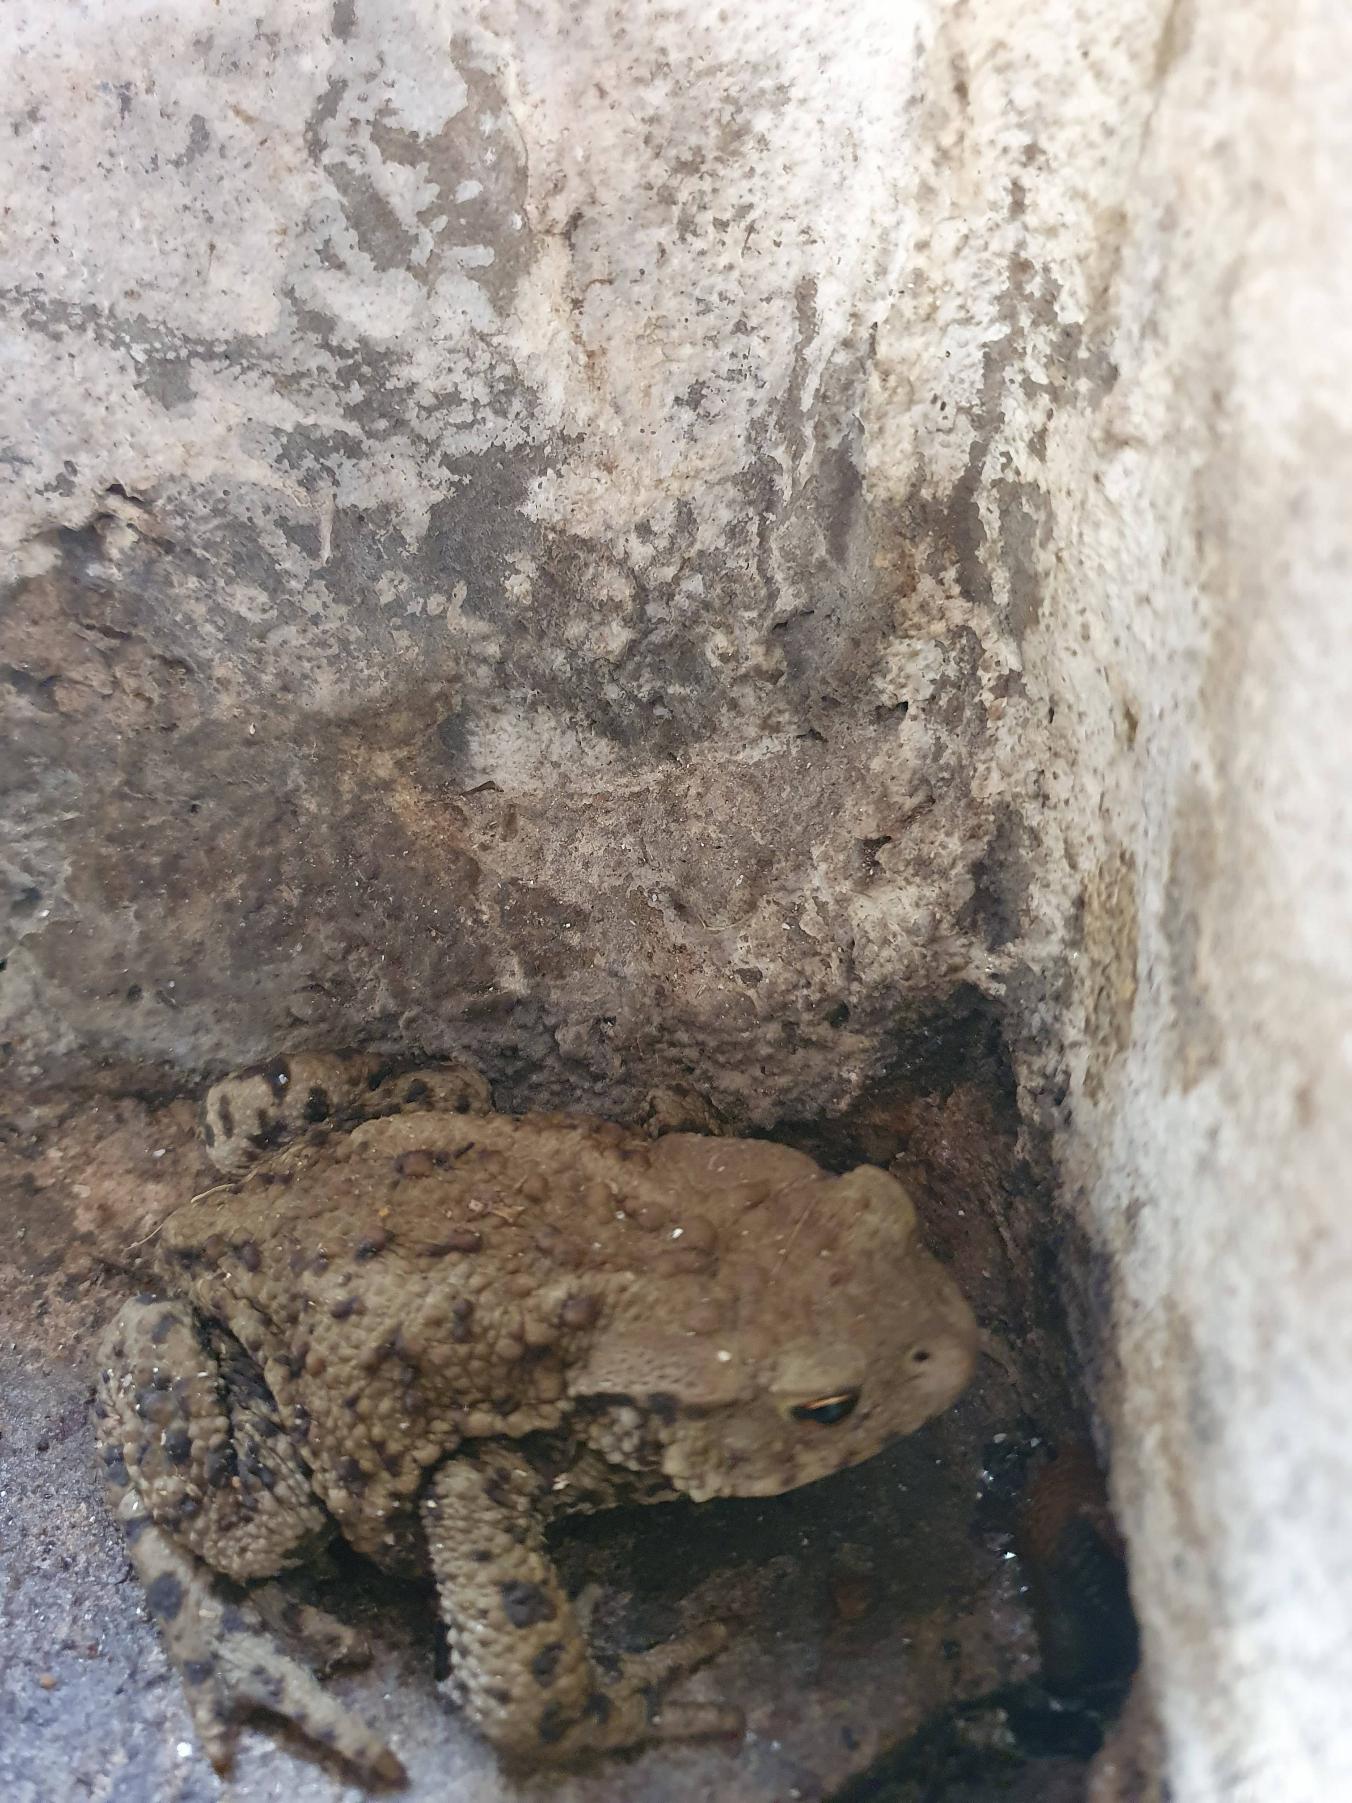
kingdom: Animalia
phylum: Chordata
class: Amphibia
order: Anura
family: Bufonidae
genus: Bufo
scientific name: Bufo bufo
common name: Skrubtudse
